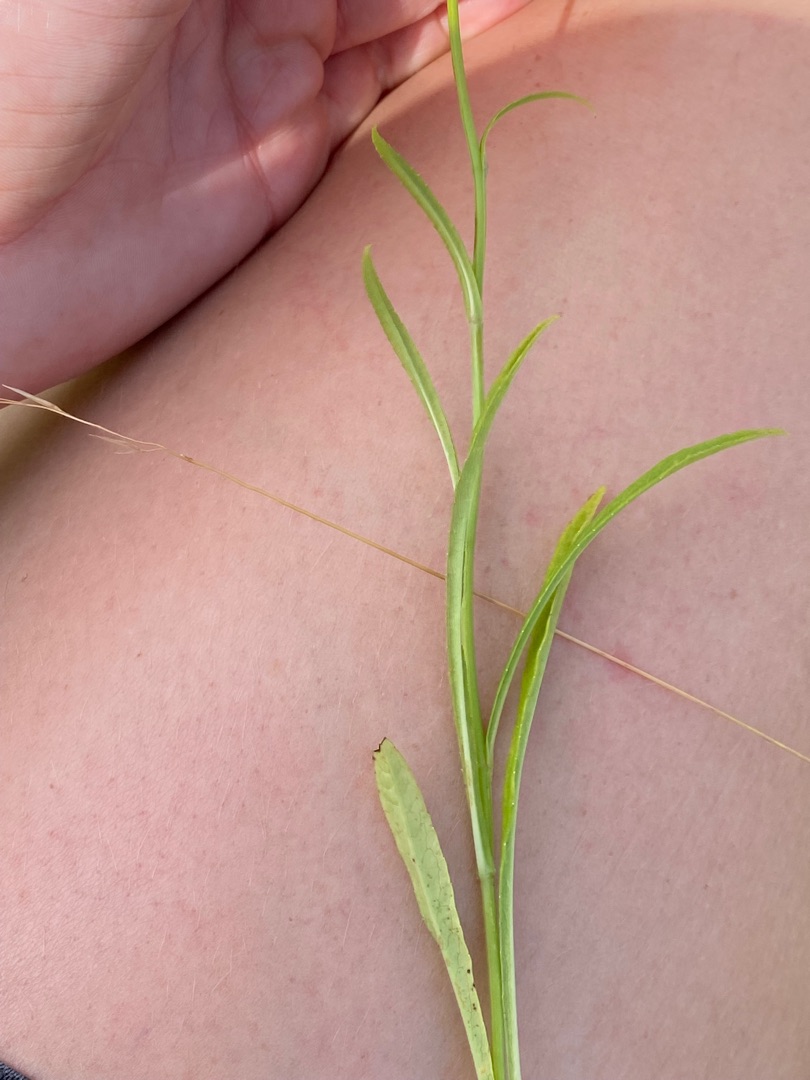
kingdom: Plantae
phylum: Tracheophyta
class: Magnoliopsida
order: Asterales
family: Campanulaceae
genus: Campanula
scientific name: Campanula rotundifolia
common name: Liden klokke
